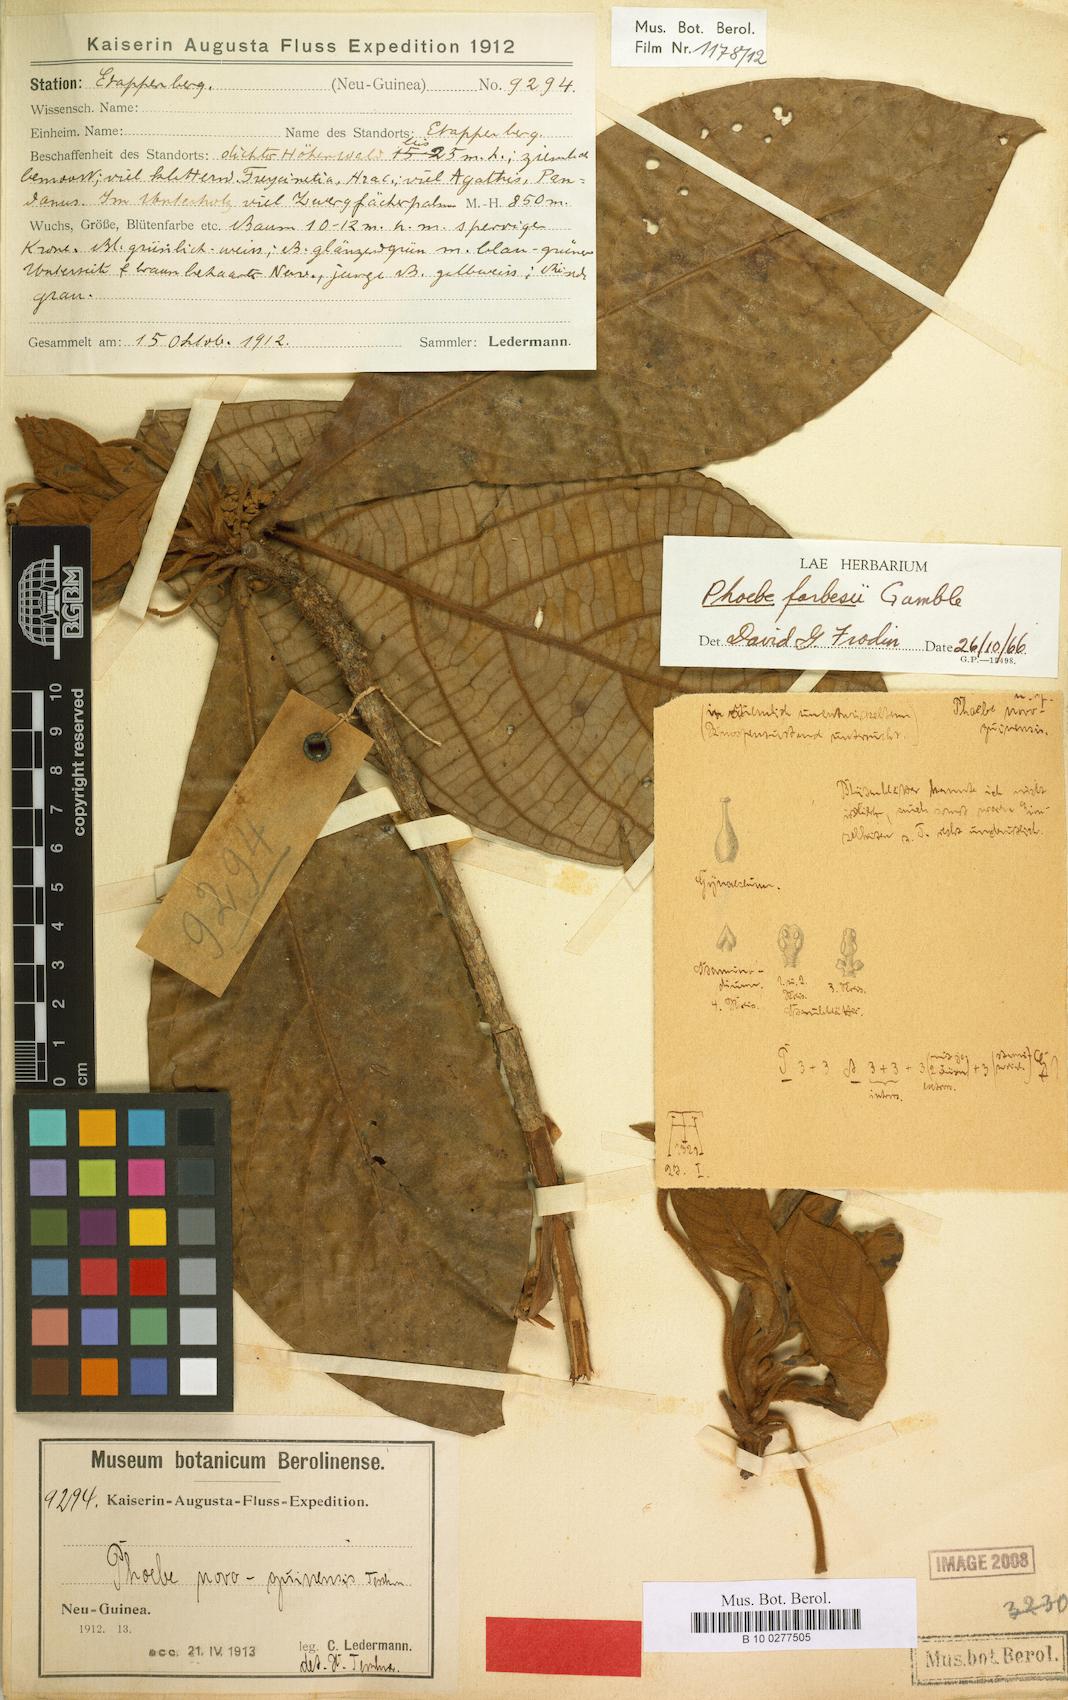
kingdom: Plantae
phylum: Tracheophyta
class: Magnoliopsida
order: Laurales
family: Lauraceae
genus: Phoebe
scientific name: Phoebe forbesii
